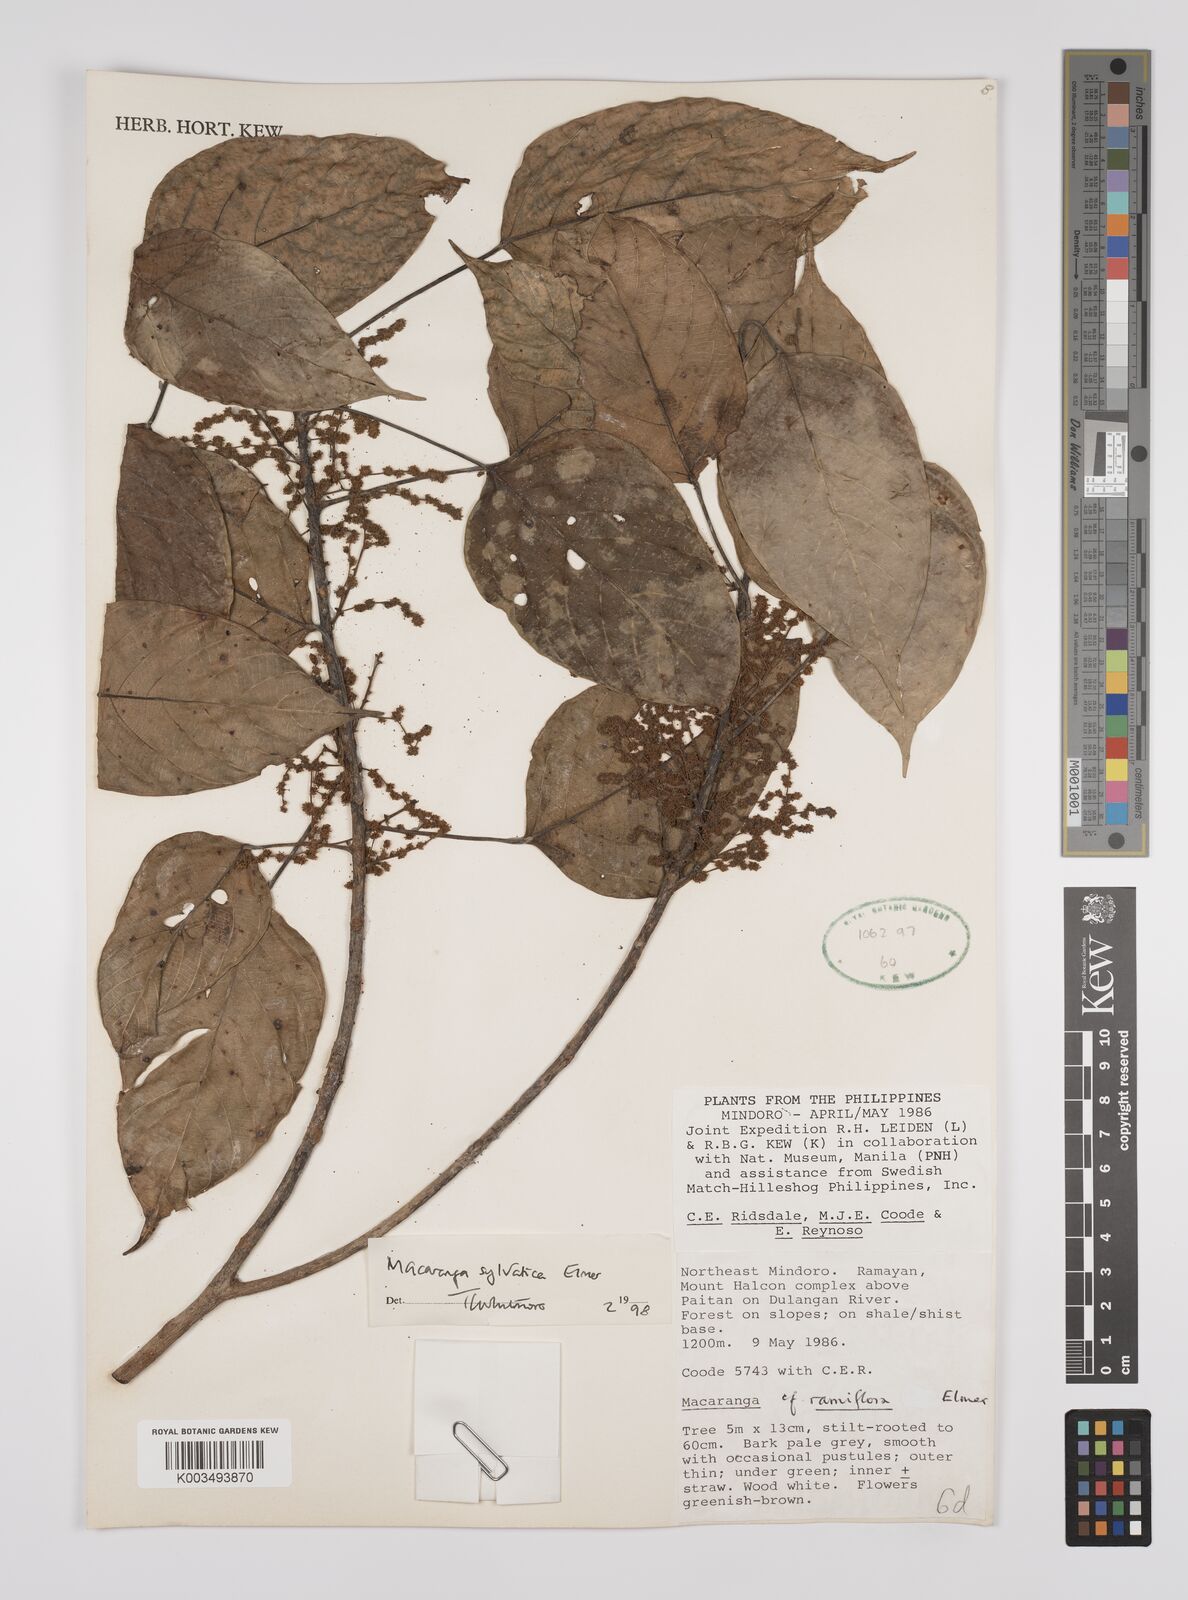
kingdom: Plantae
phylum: Tracheophyta
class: Magnoliopsida
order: Malpighiales
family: Euphorbiaceae
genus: Macaranga
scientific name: Macaranga sylvatica
